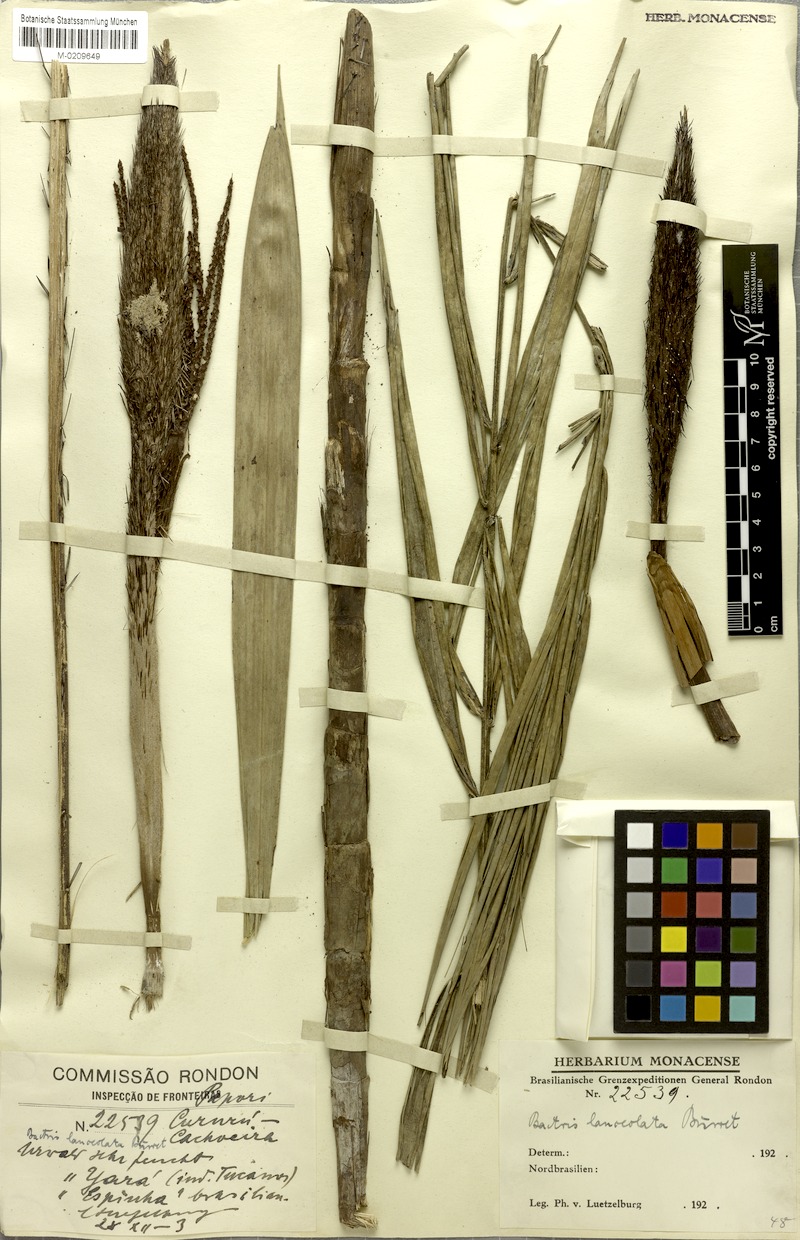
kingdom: Plantae
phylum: Tracheophyta
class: Liliopsida
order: Arecales
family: Arecaceae
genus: Bactris
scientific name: Bactris campestris
